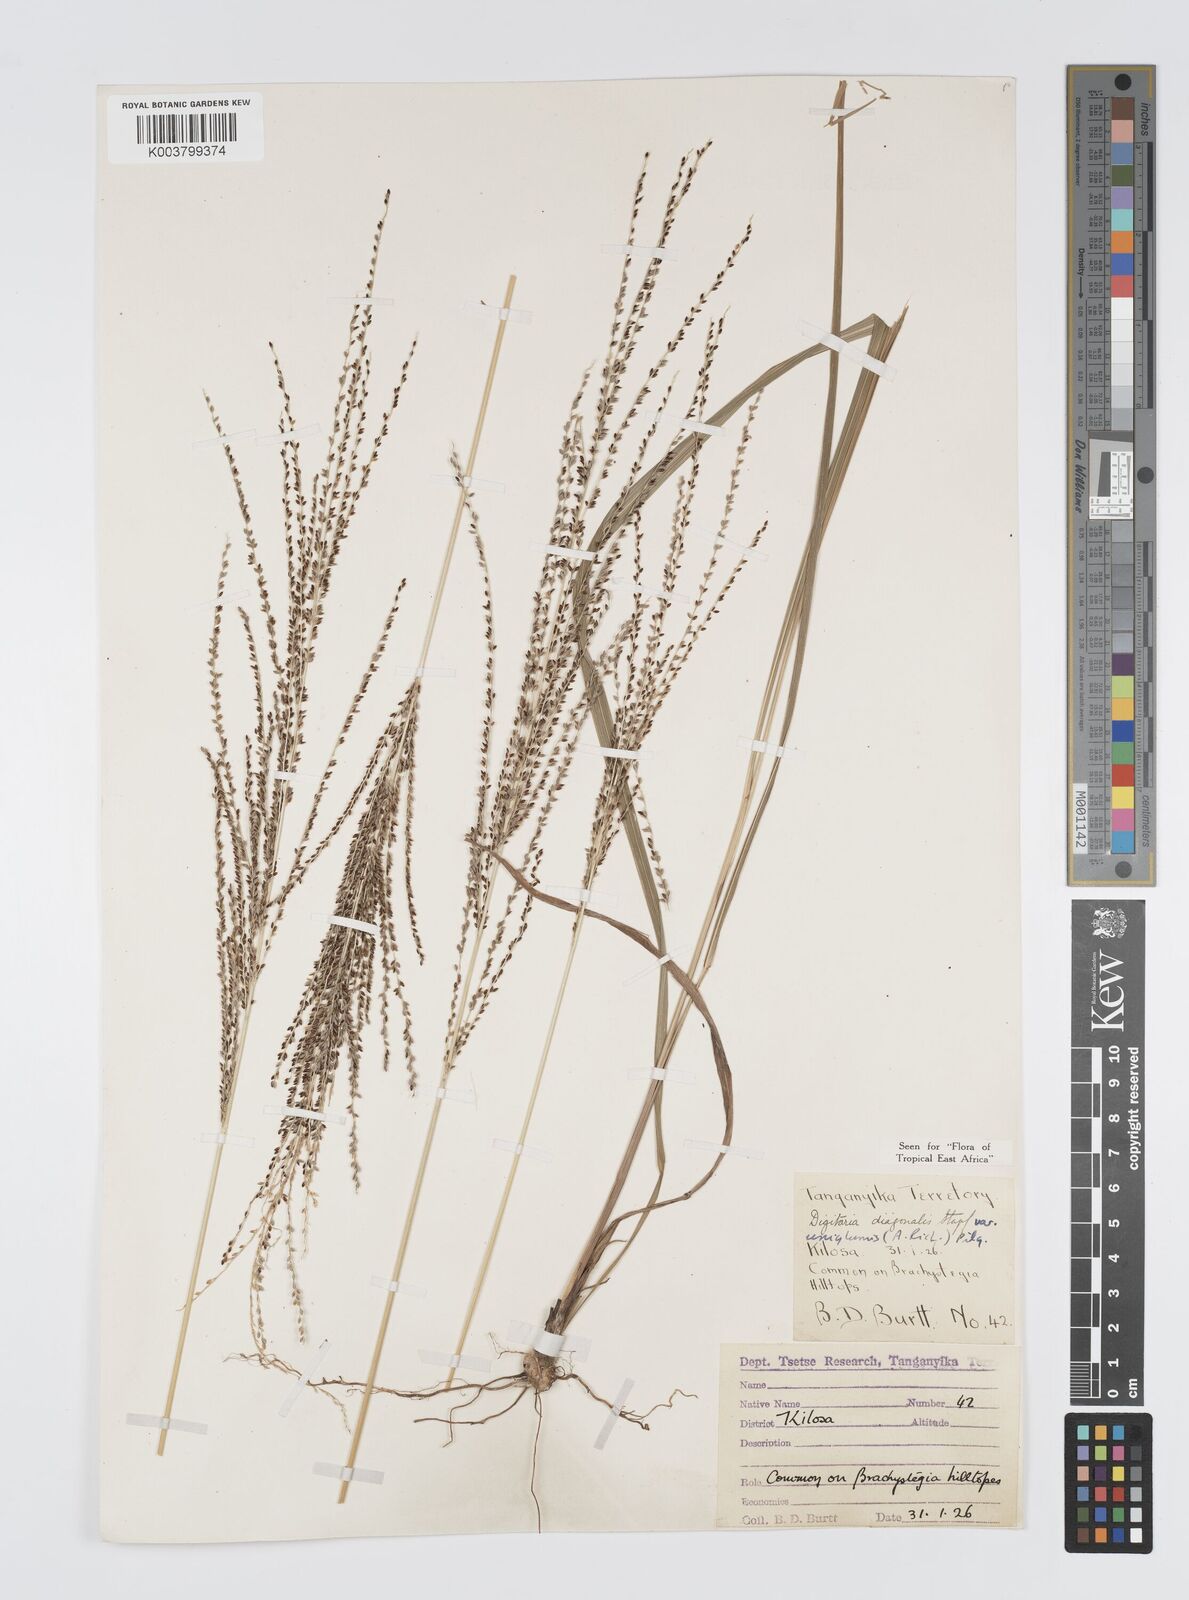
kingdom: Plantae
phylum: Tracheophyta
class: Liliopsida
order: Poales
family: Poaceae
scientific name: Poaceae
